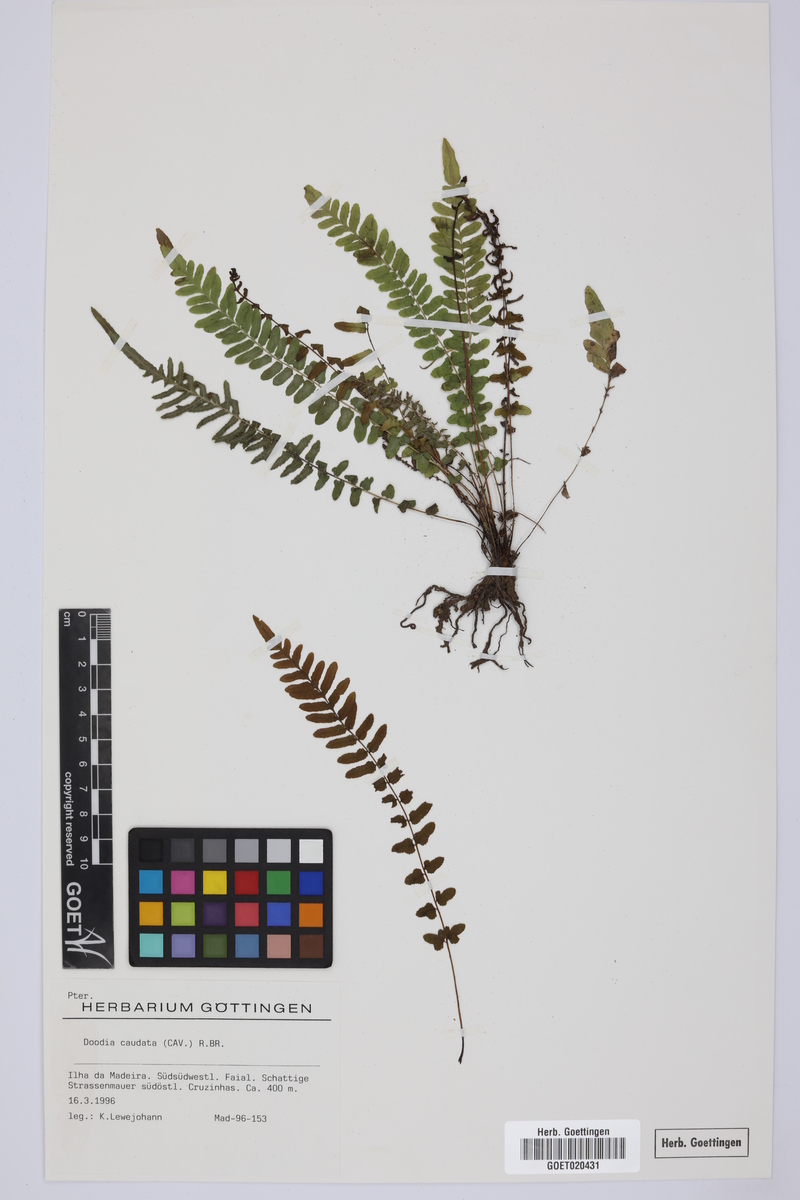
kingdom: Plantae
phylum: Tracheophyta
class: Polypodiopsida
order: Polypodiales
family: Blechnaceae
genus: Doodia
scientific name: Doodia caudata
